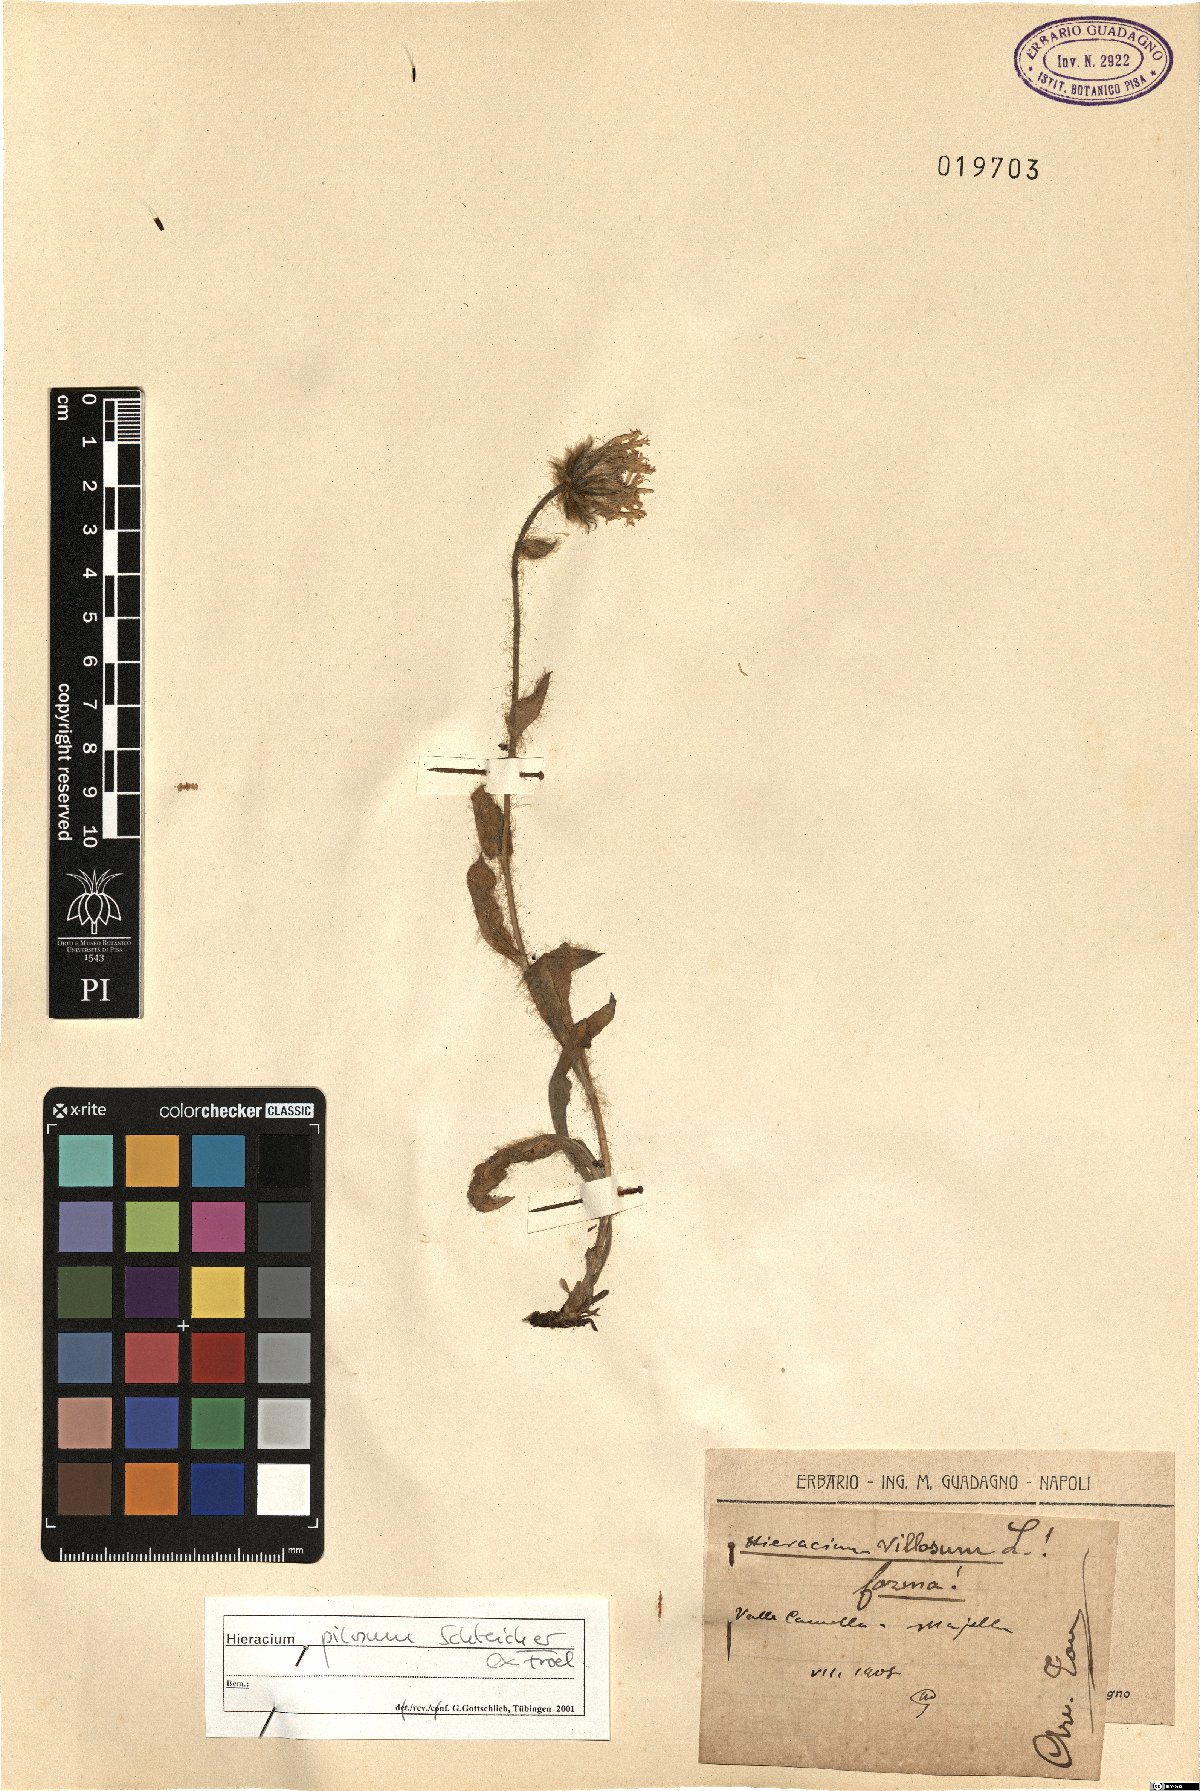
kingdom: Plantae
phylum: Tracheophyta
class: Magnoliopsida
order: Asterales
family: Asteraceae
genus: Hieracium
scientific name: Hieracium pilosum
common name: Fimbriate-pitted hawkweed
